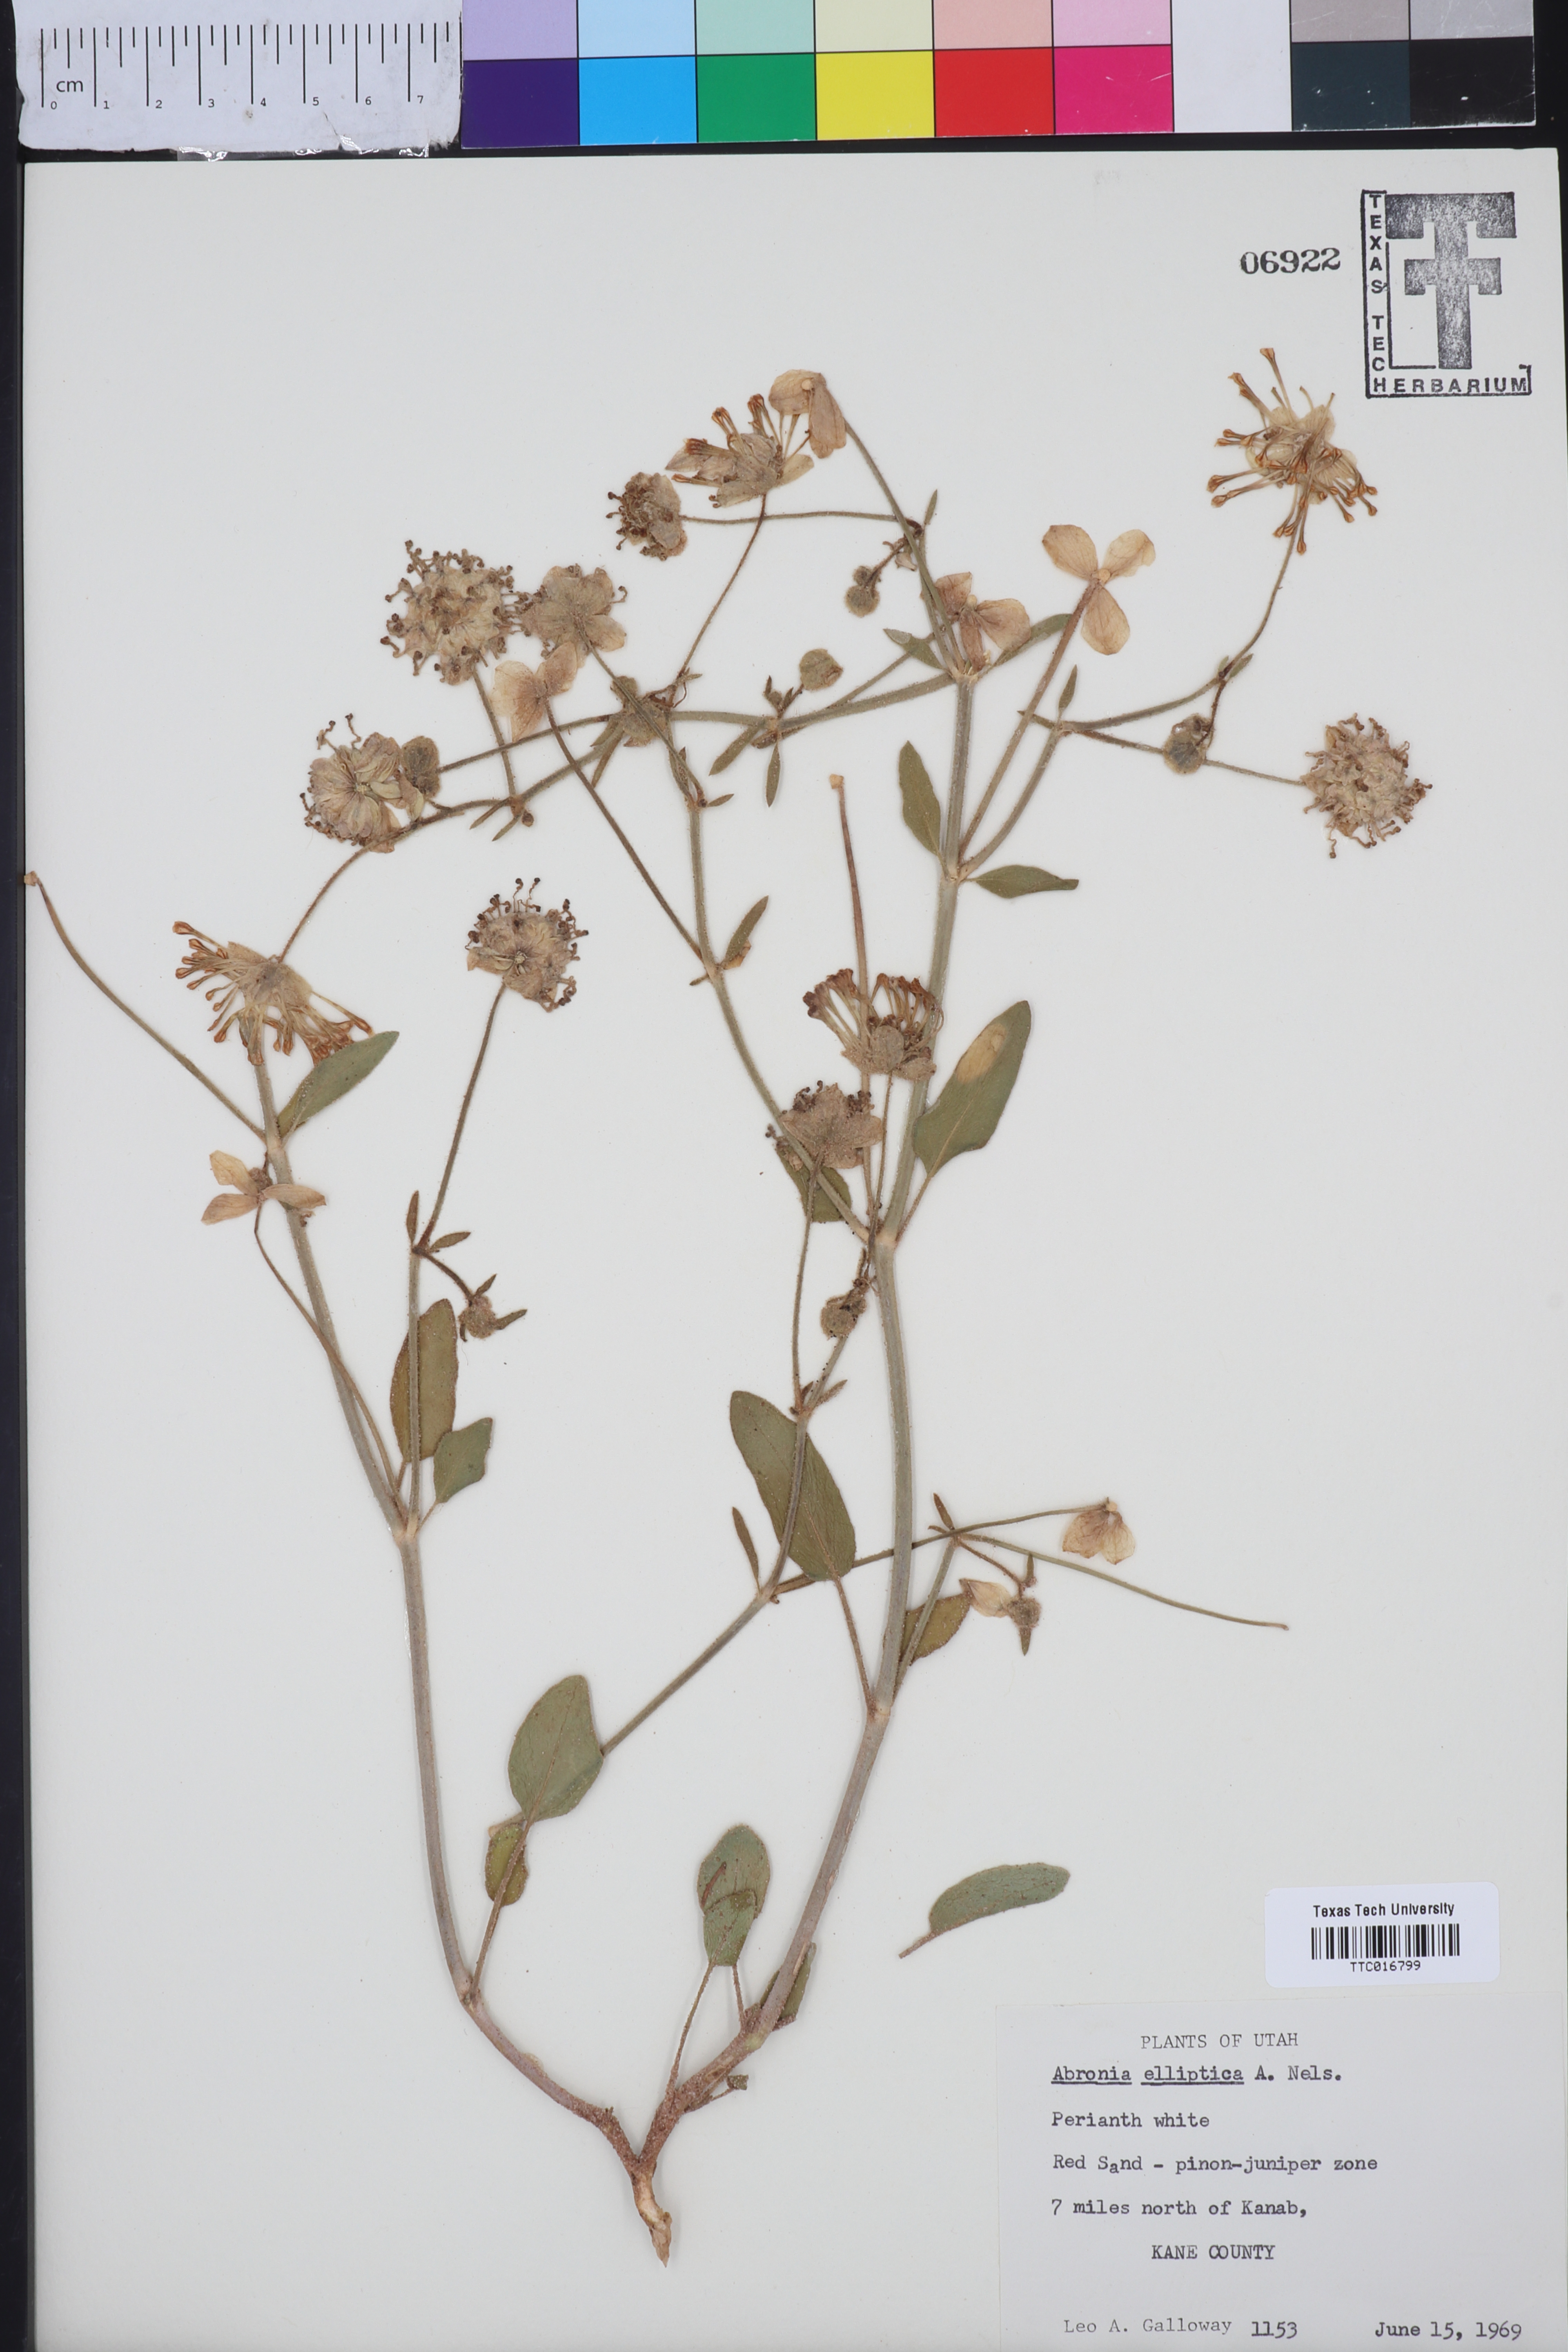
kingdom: Plantae
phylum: Tracheophyta
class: Magnoliopsida
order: Caryophyllales
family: Nyctaginaceae
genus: Abronia
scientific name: Abronia elliptica
